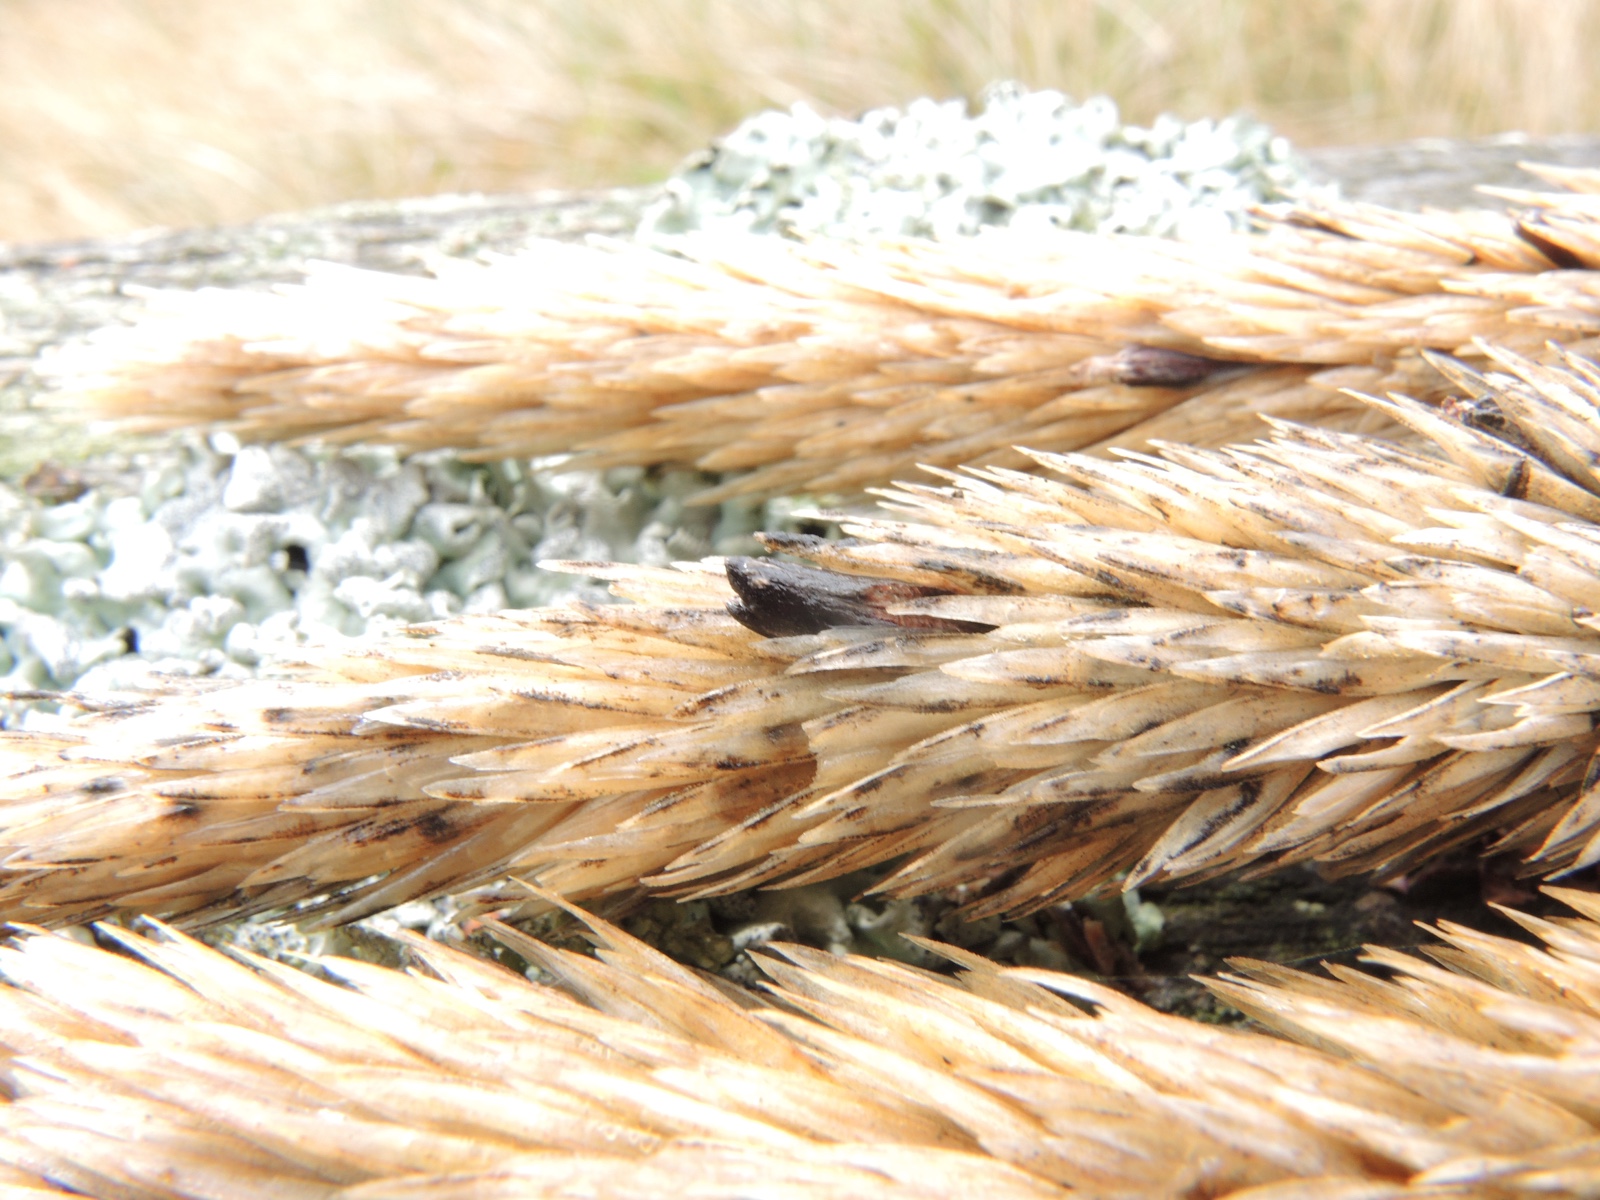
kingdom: Fungi
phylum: Ascomycota
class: Sordariomycetes
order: Hypocreales
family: Clavicipitaceae
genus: Claviceps
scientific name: Claviceps purpurea
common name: almindelig meldrøjer
